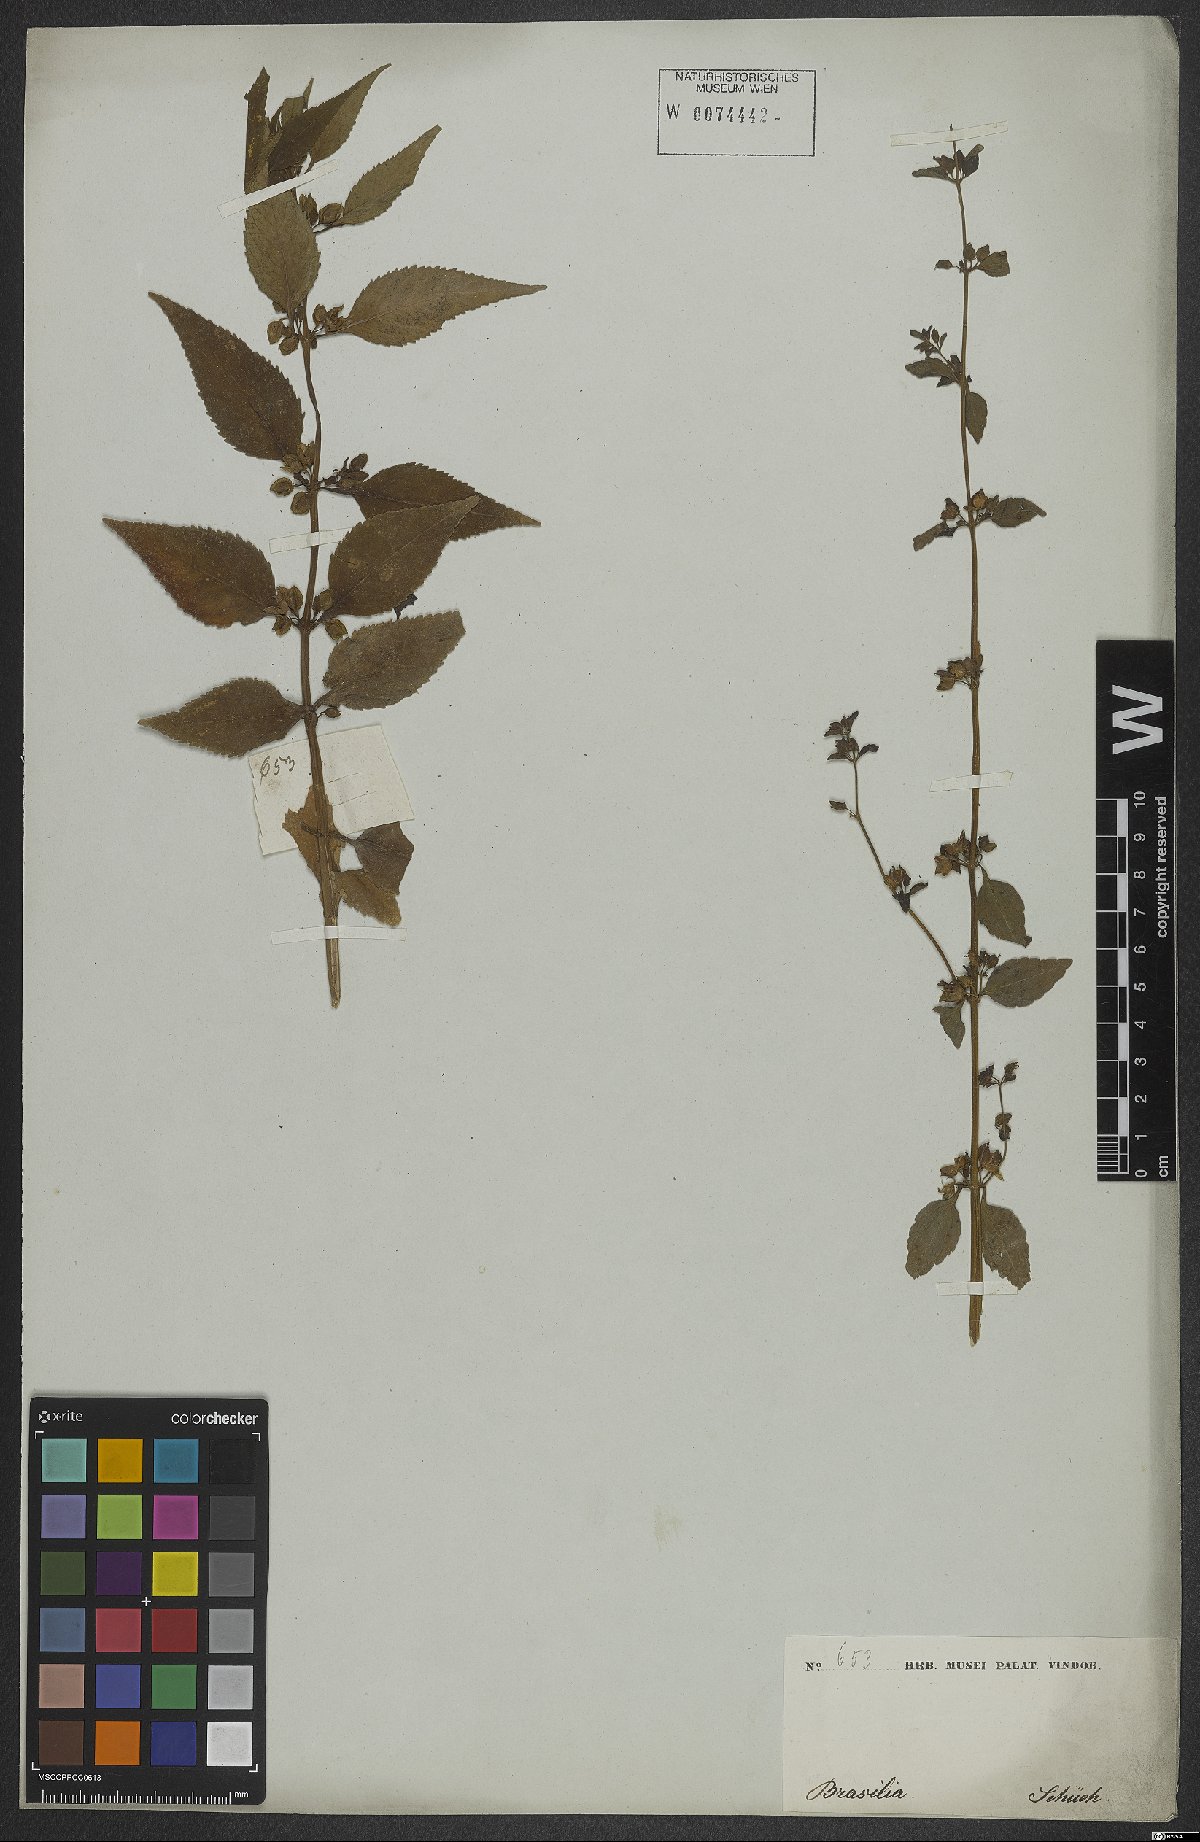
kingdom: Plantae
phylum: Tracheophyta
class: Magnoliopsida
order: Lamiales
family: Scrophulariaceae
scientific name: Scrophulariaceae
